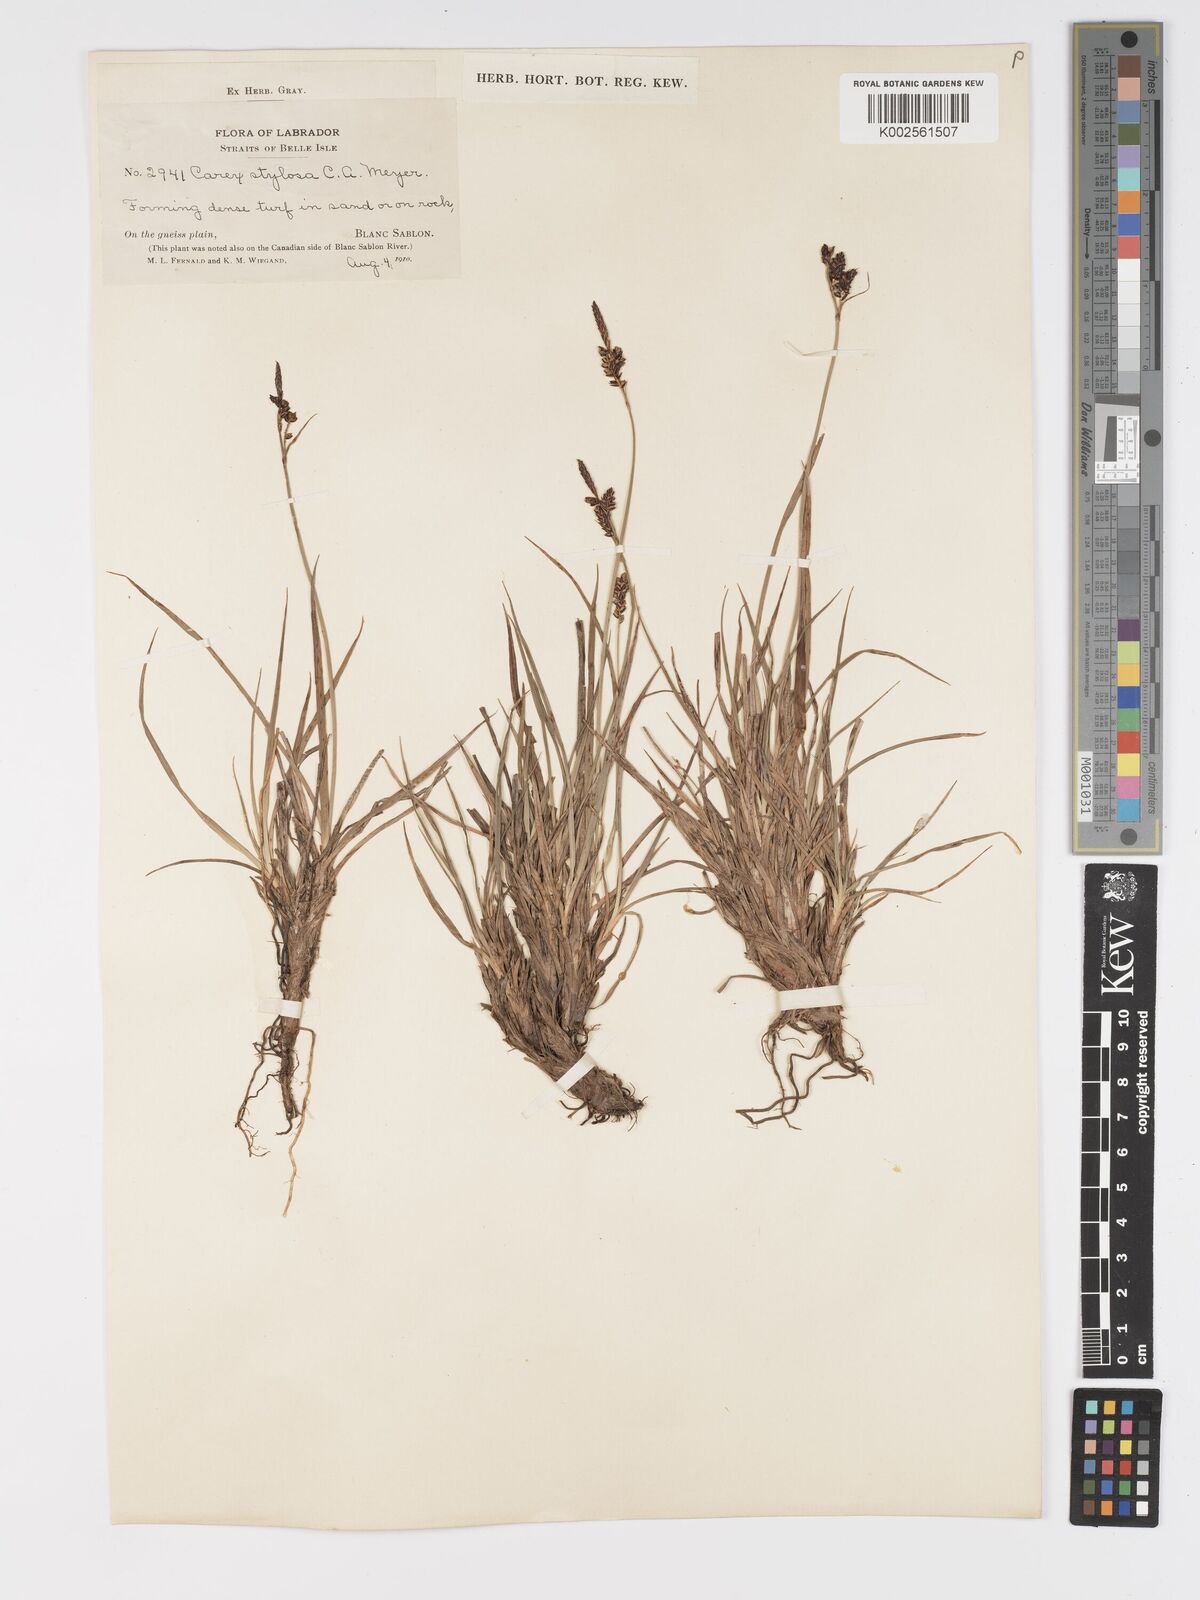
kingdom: Plantae
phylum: Tracheophyta
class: Liliopsida
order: Poales
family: Cyperaceae
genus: Carex
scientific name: Carex stylosa
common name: Long-styled sedge
